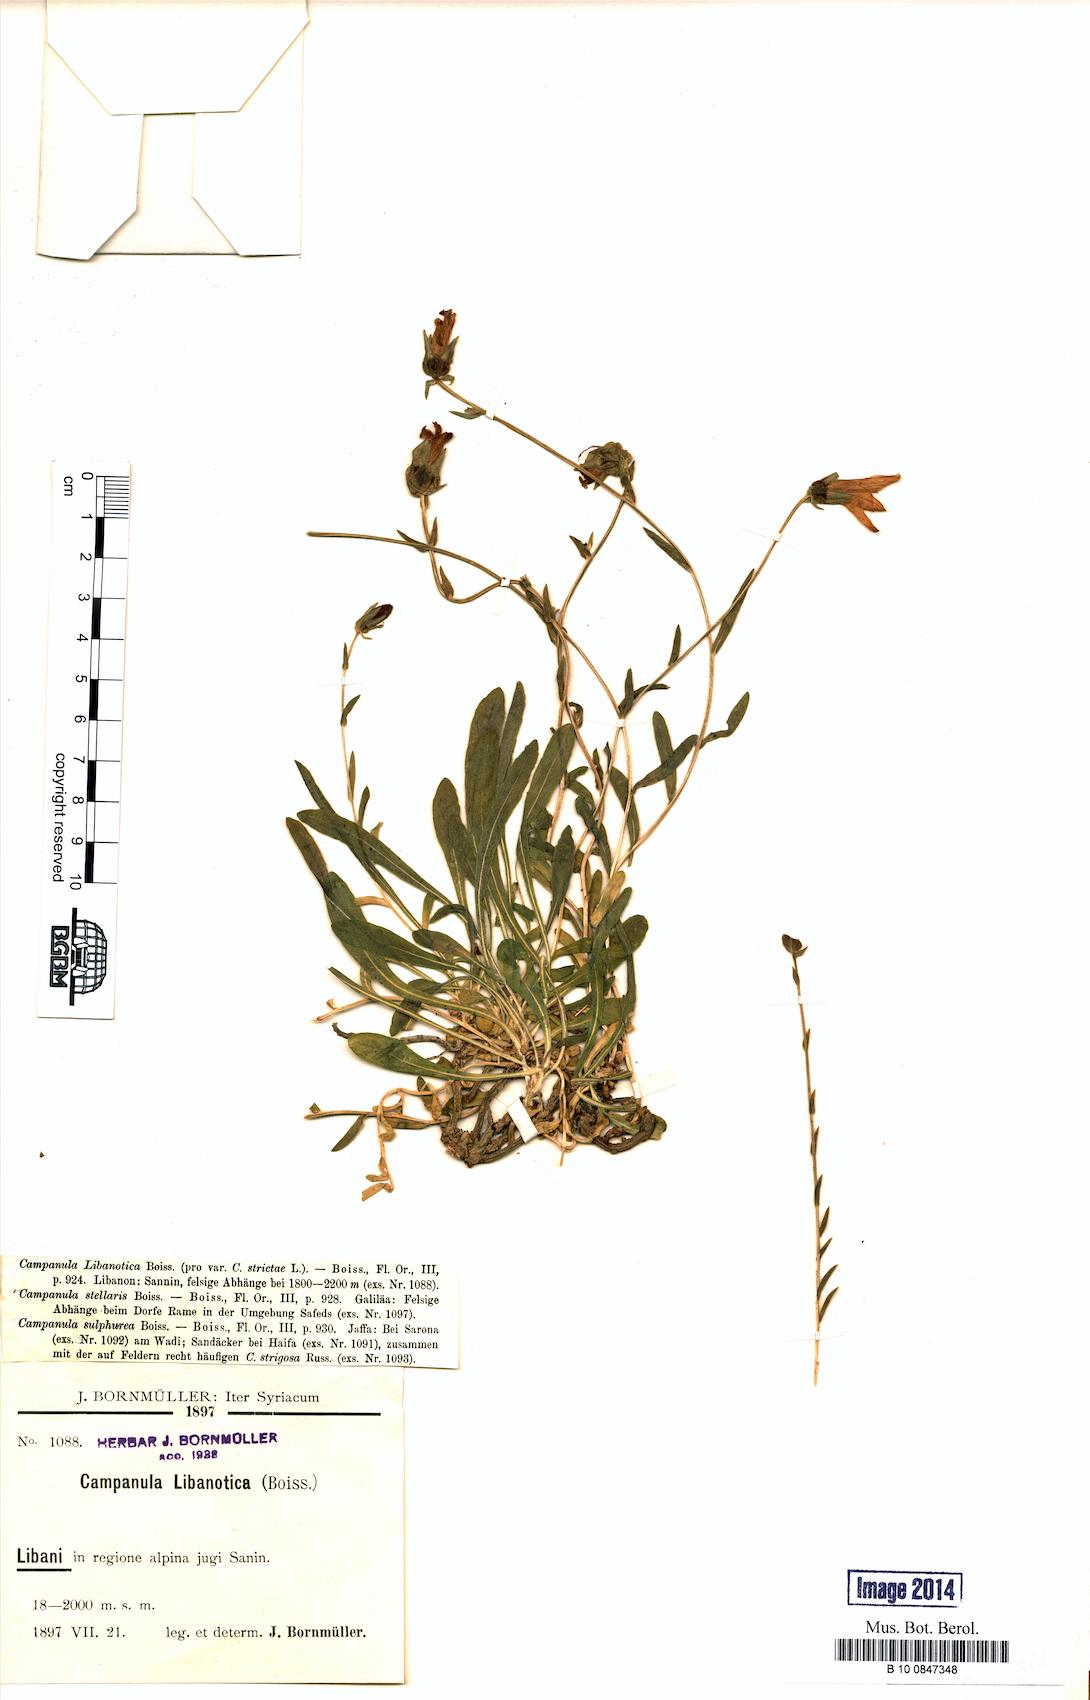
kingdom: Plantae
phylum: Tracheophyta
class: Magnoliopsida
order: Asterales
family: Campanulaceae
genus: Campanula
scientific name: Campanula stricta
